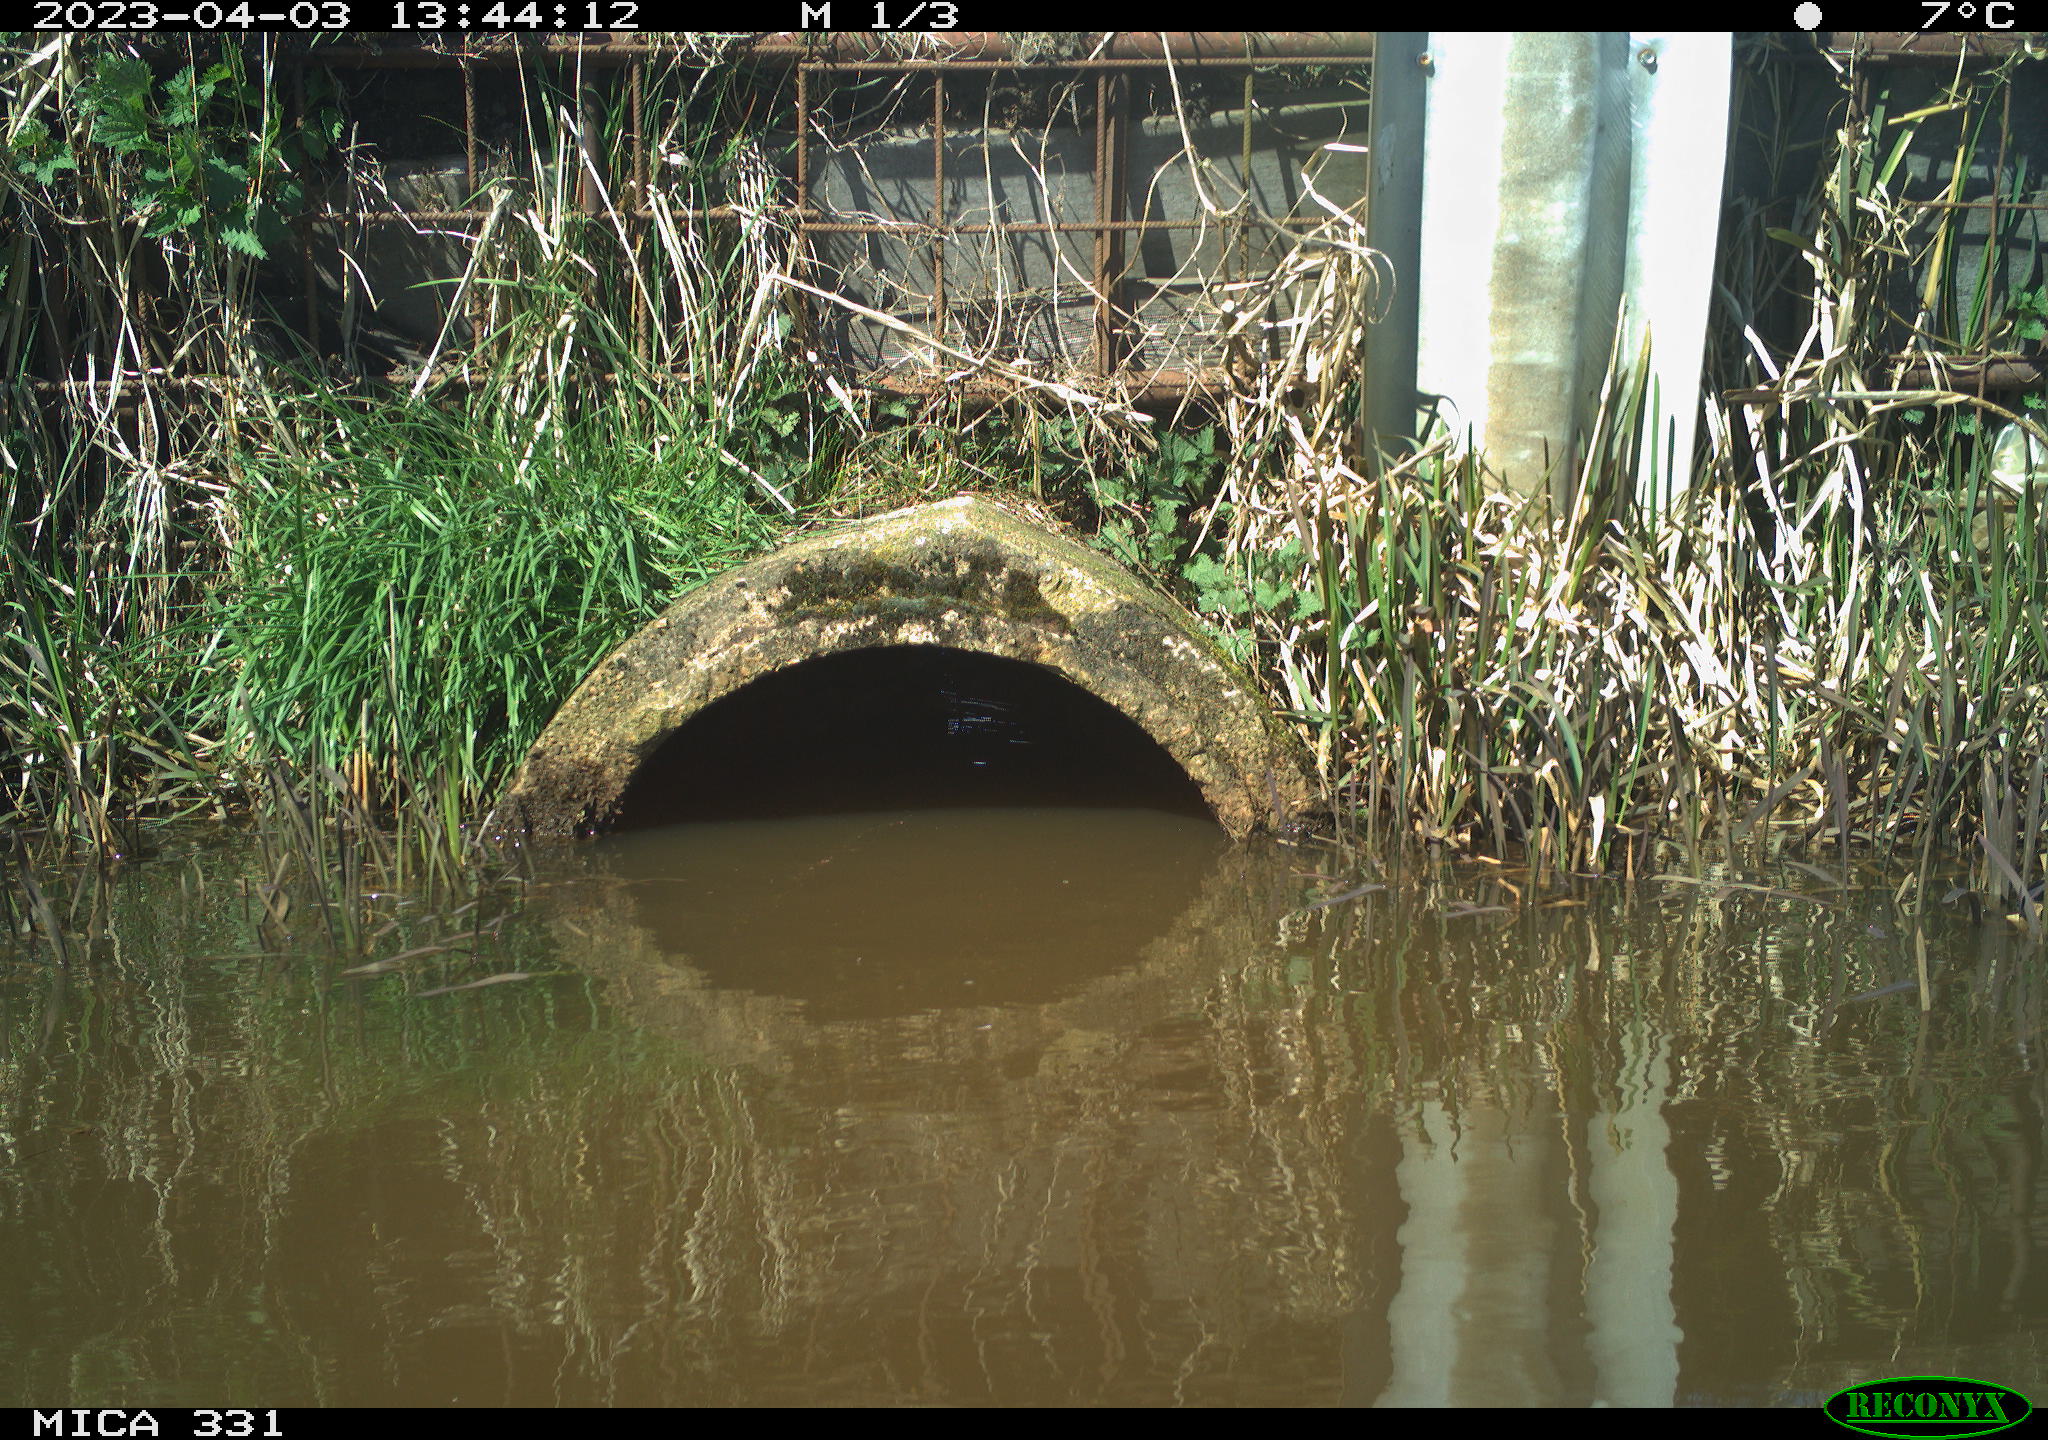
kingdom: Animalia
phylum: Chordata
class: Aves
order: Gruiformes
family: Rallidae
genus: Fulica
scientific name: Fulica atra
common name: Eurasian coot
